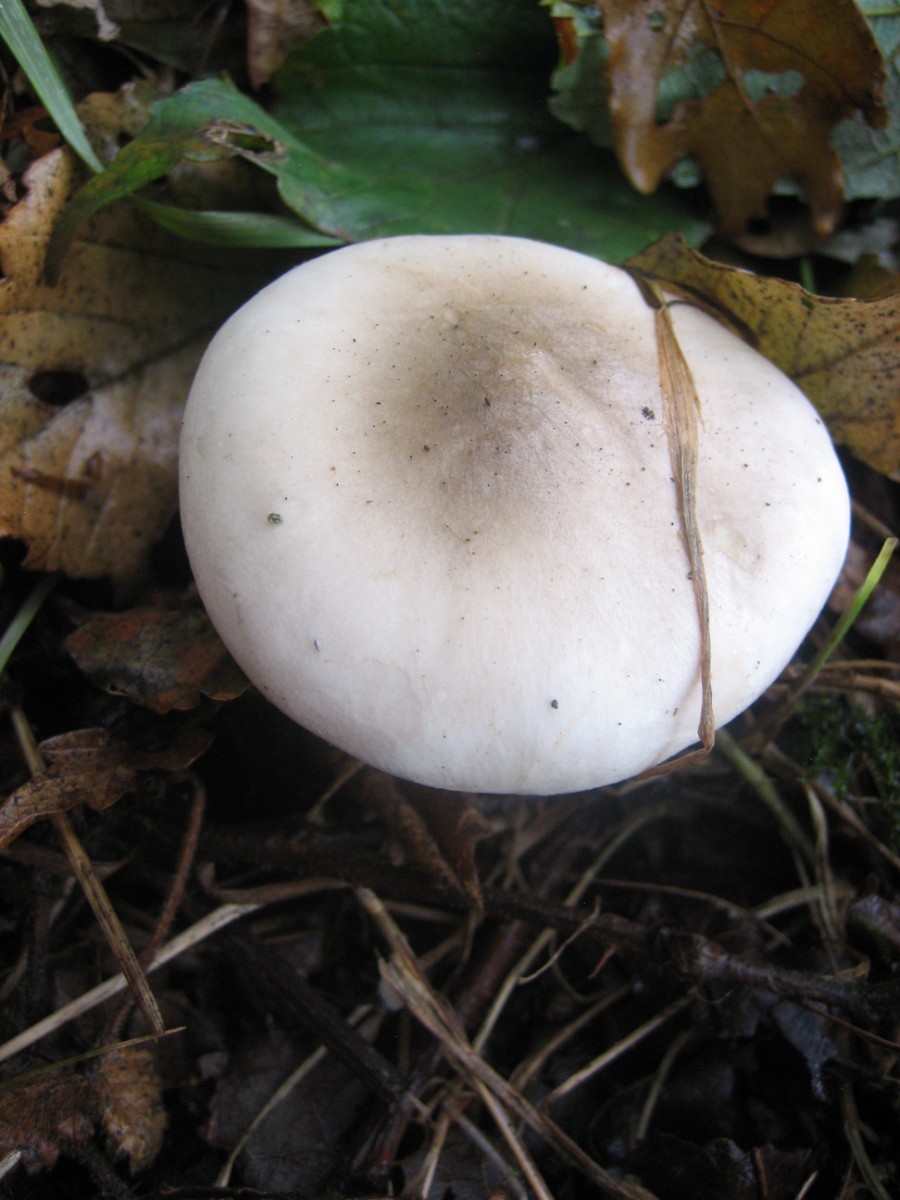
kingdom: Fungi
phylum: Basidiomycota
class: Agaricomycetes
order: Agaricales
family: Tricholomataceae
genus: Clitocybe
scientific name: Clitocybe nebularis
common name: tåge-tragthat
